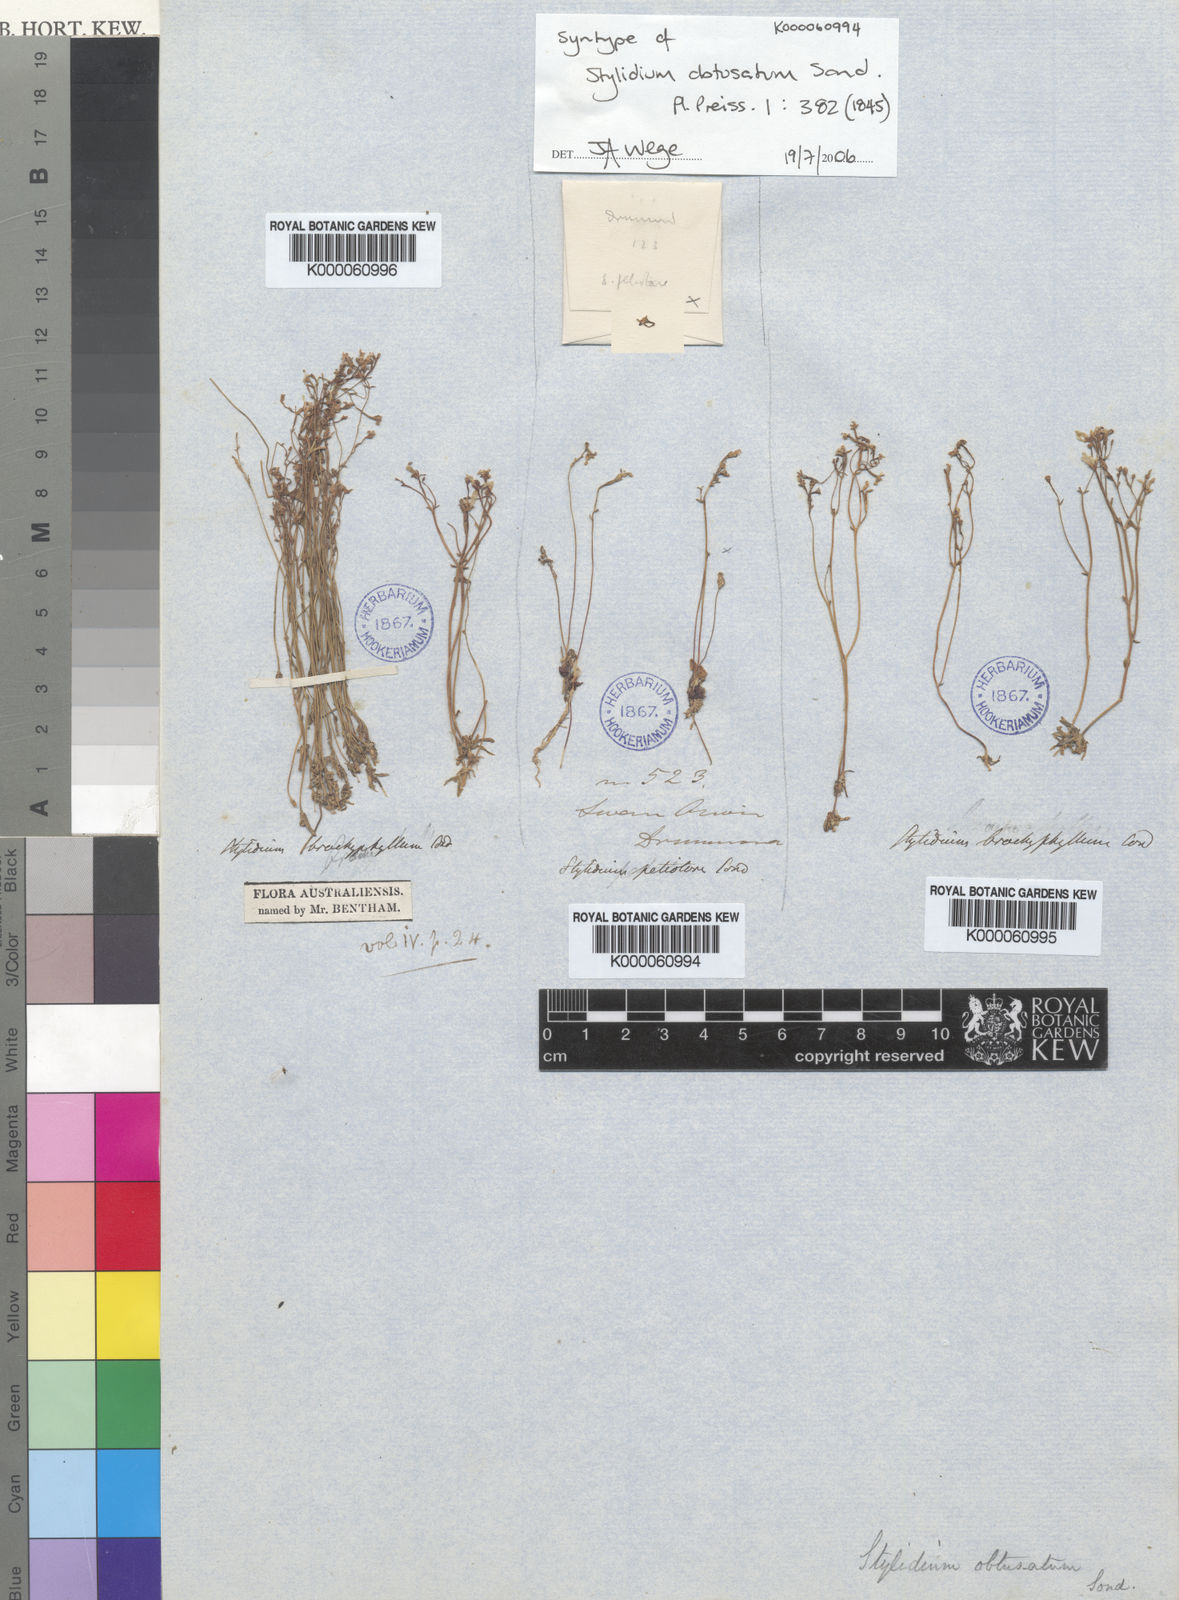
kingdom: Plantae
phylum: Tracheophyta
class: Magnoliopsida
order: Asterales
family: Stylidiaceae
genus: Stylidium
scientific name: Stylidium despectum
